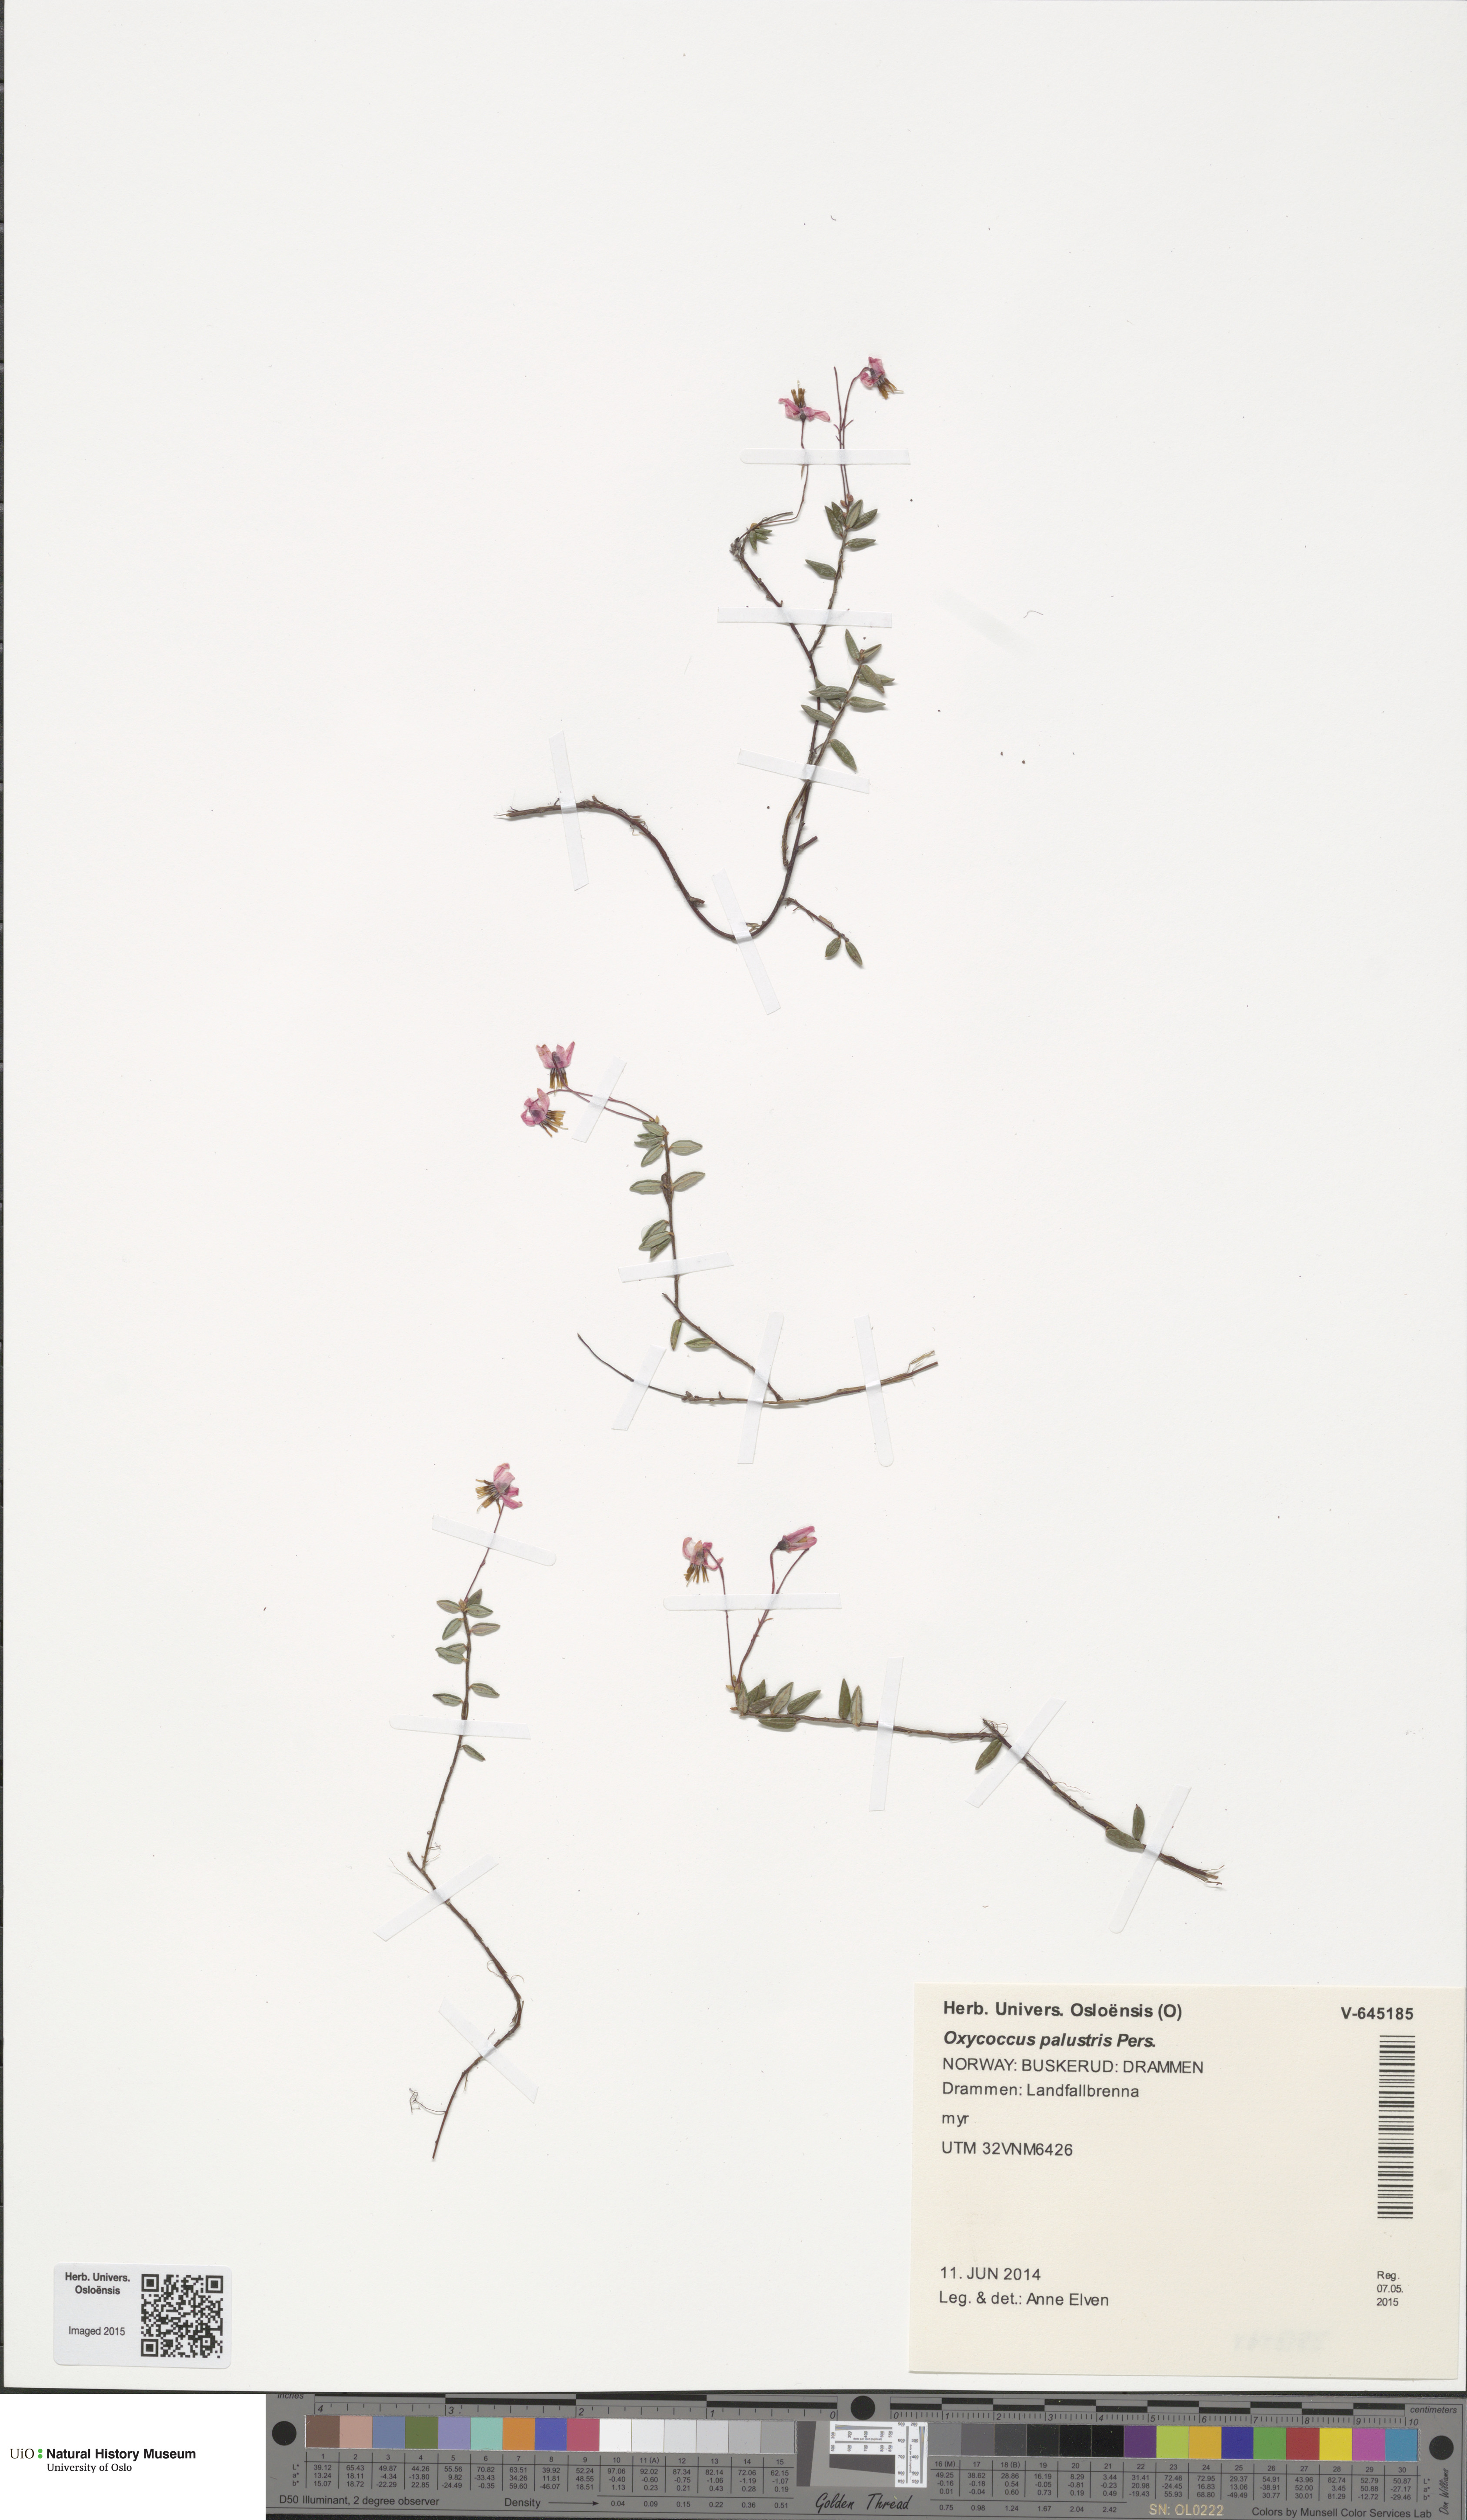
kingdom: Plantae
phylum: Tracheophyta
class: Magnoliopsida
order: Ericales
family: Ericaceae
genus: Vaccinium
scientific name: Vaccinium oxycoccos
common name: Cranberry
